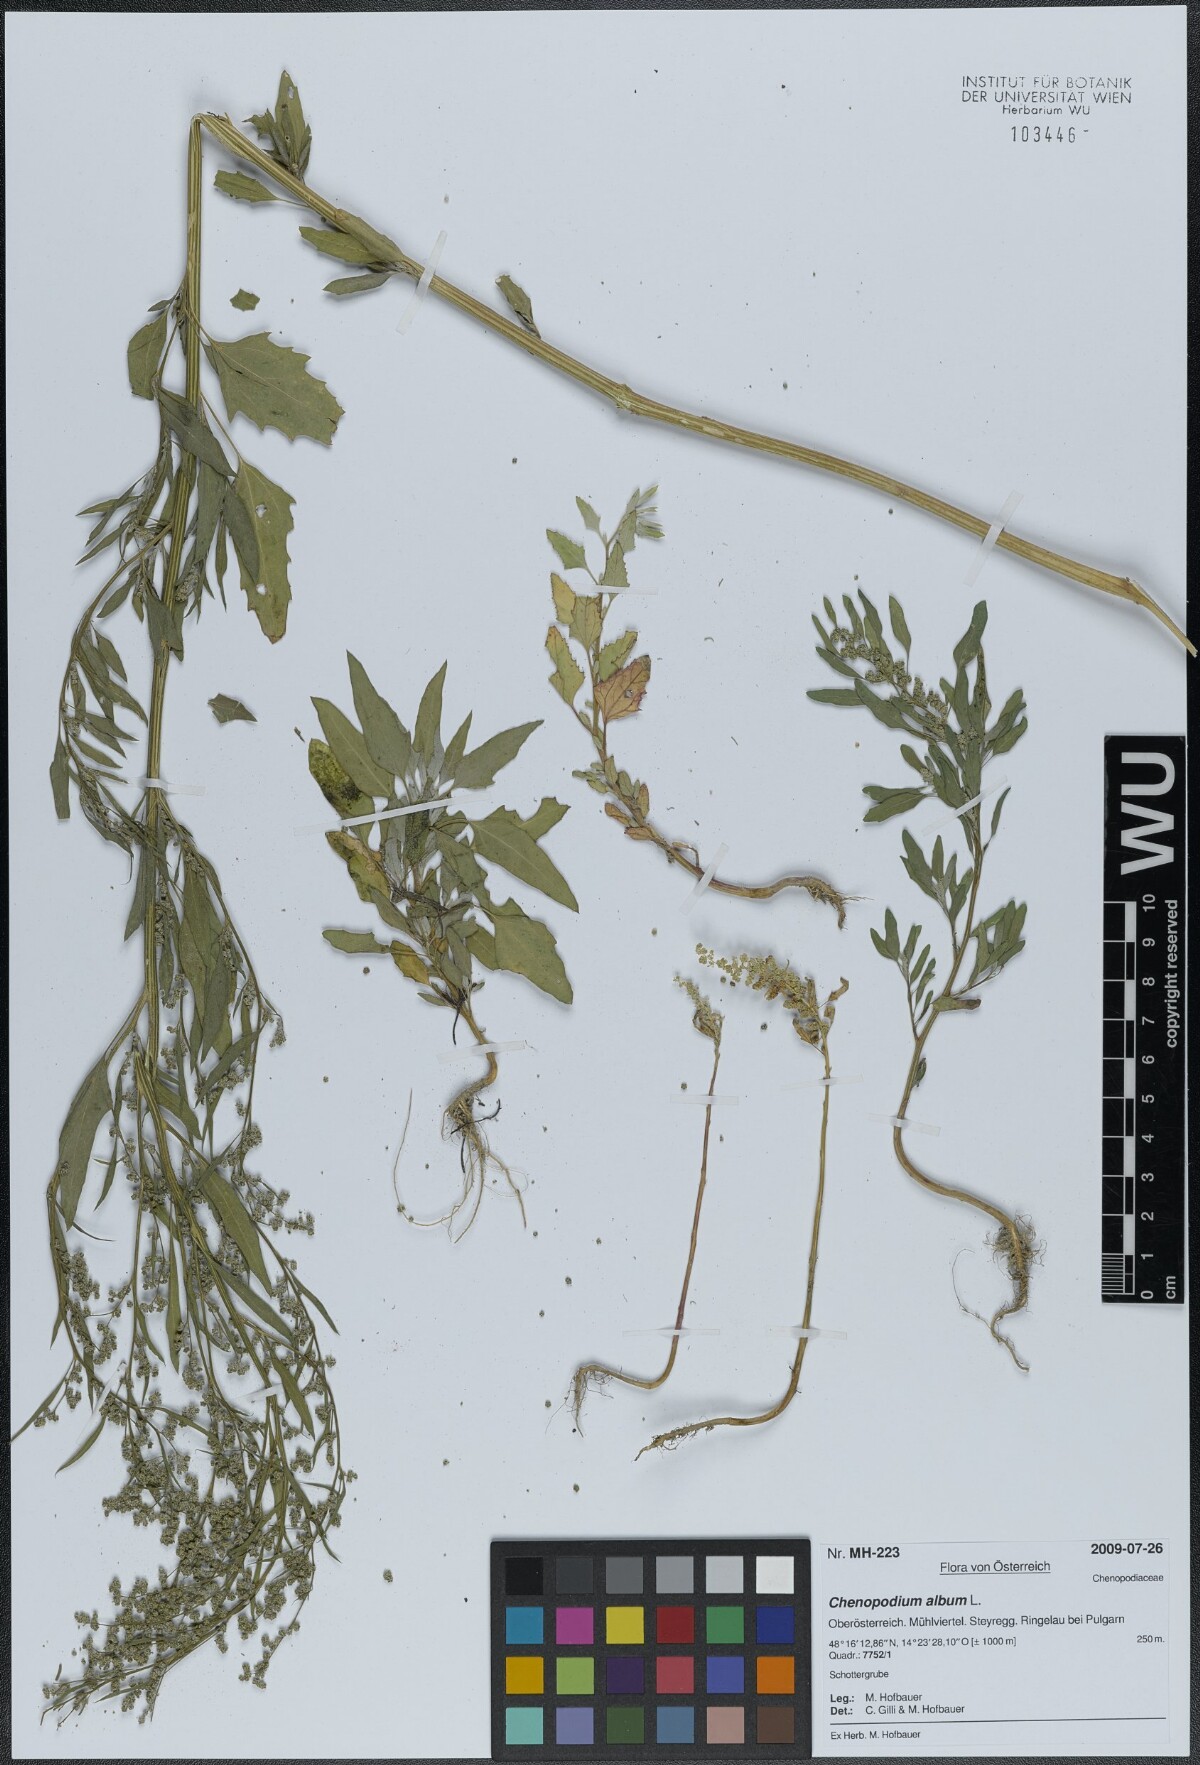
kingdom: Plantae
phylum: Tracheophyta
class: Magnoliopsida
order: Caryophyllales
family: Amaranthaceae
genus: Chenopodium
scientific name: Chenopodium album
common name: Fat-hen
